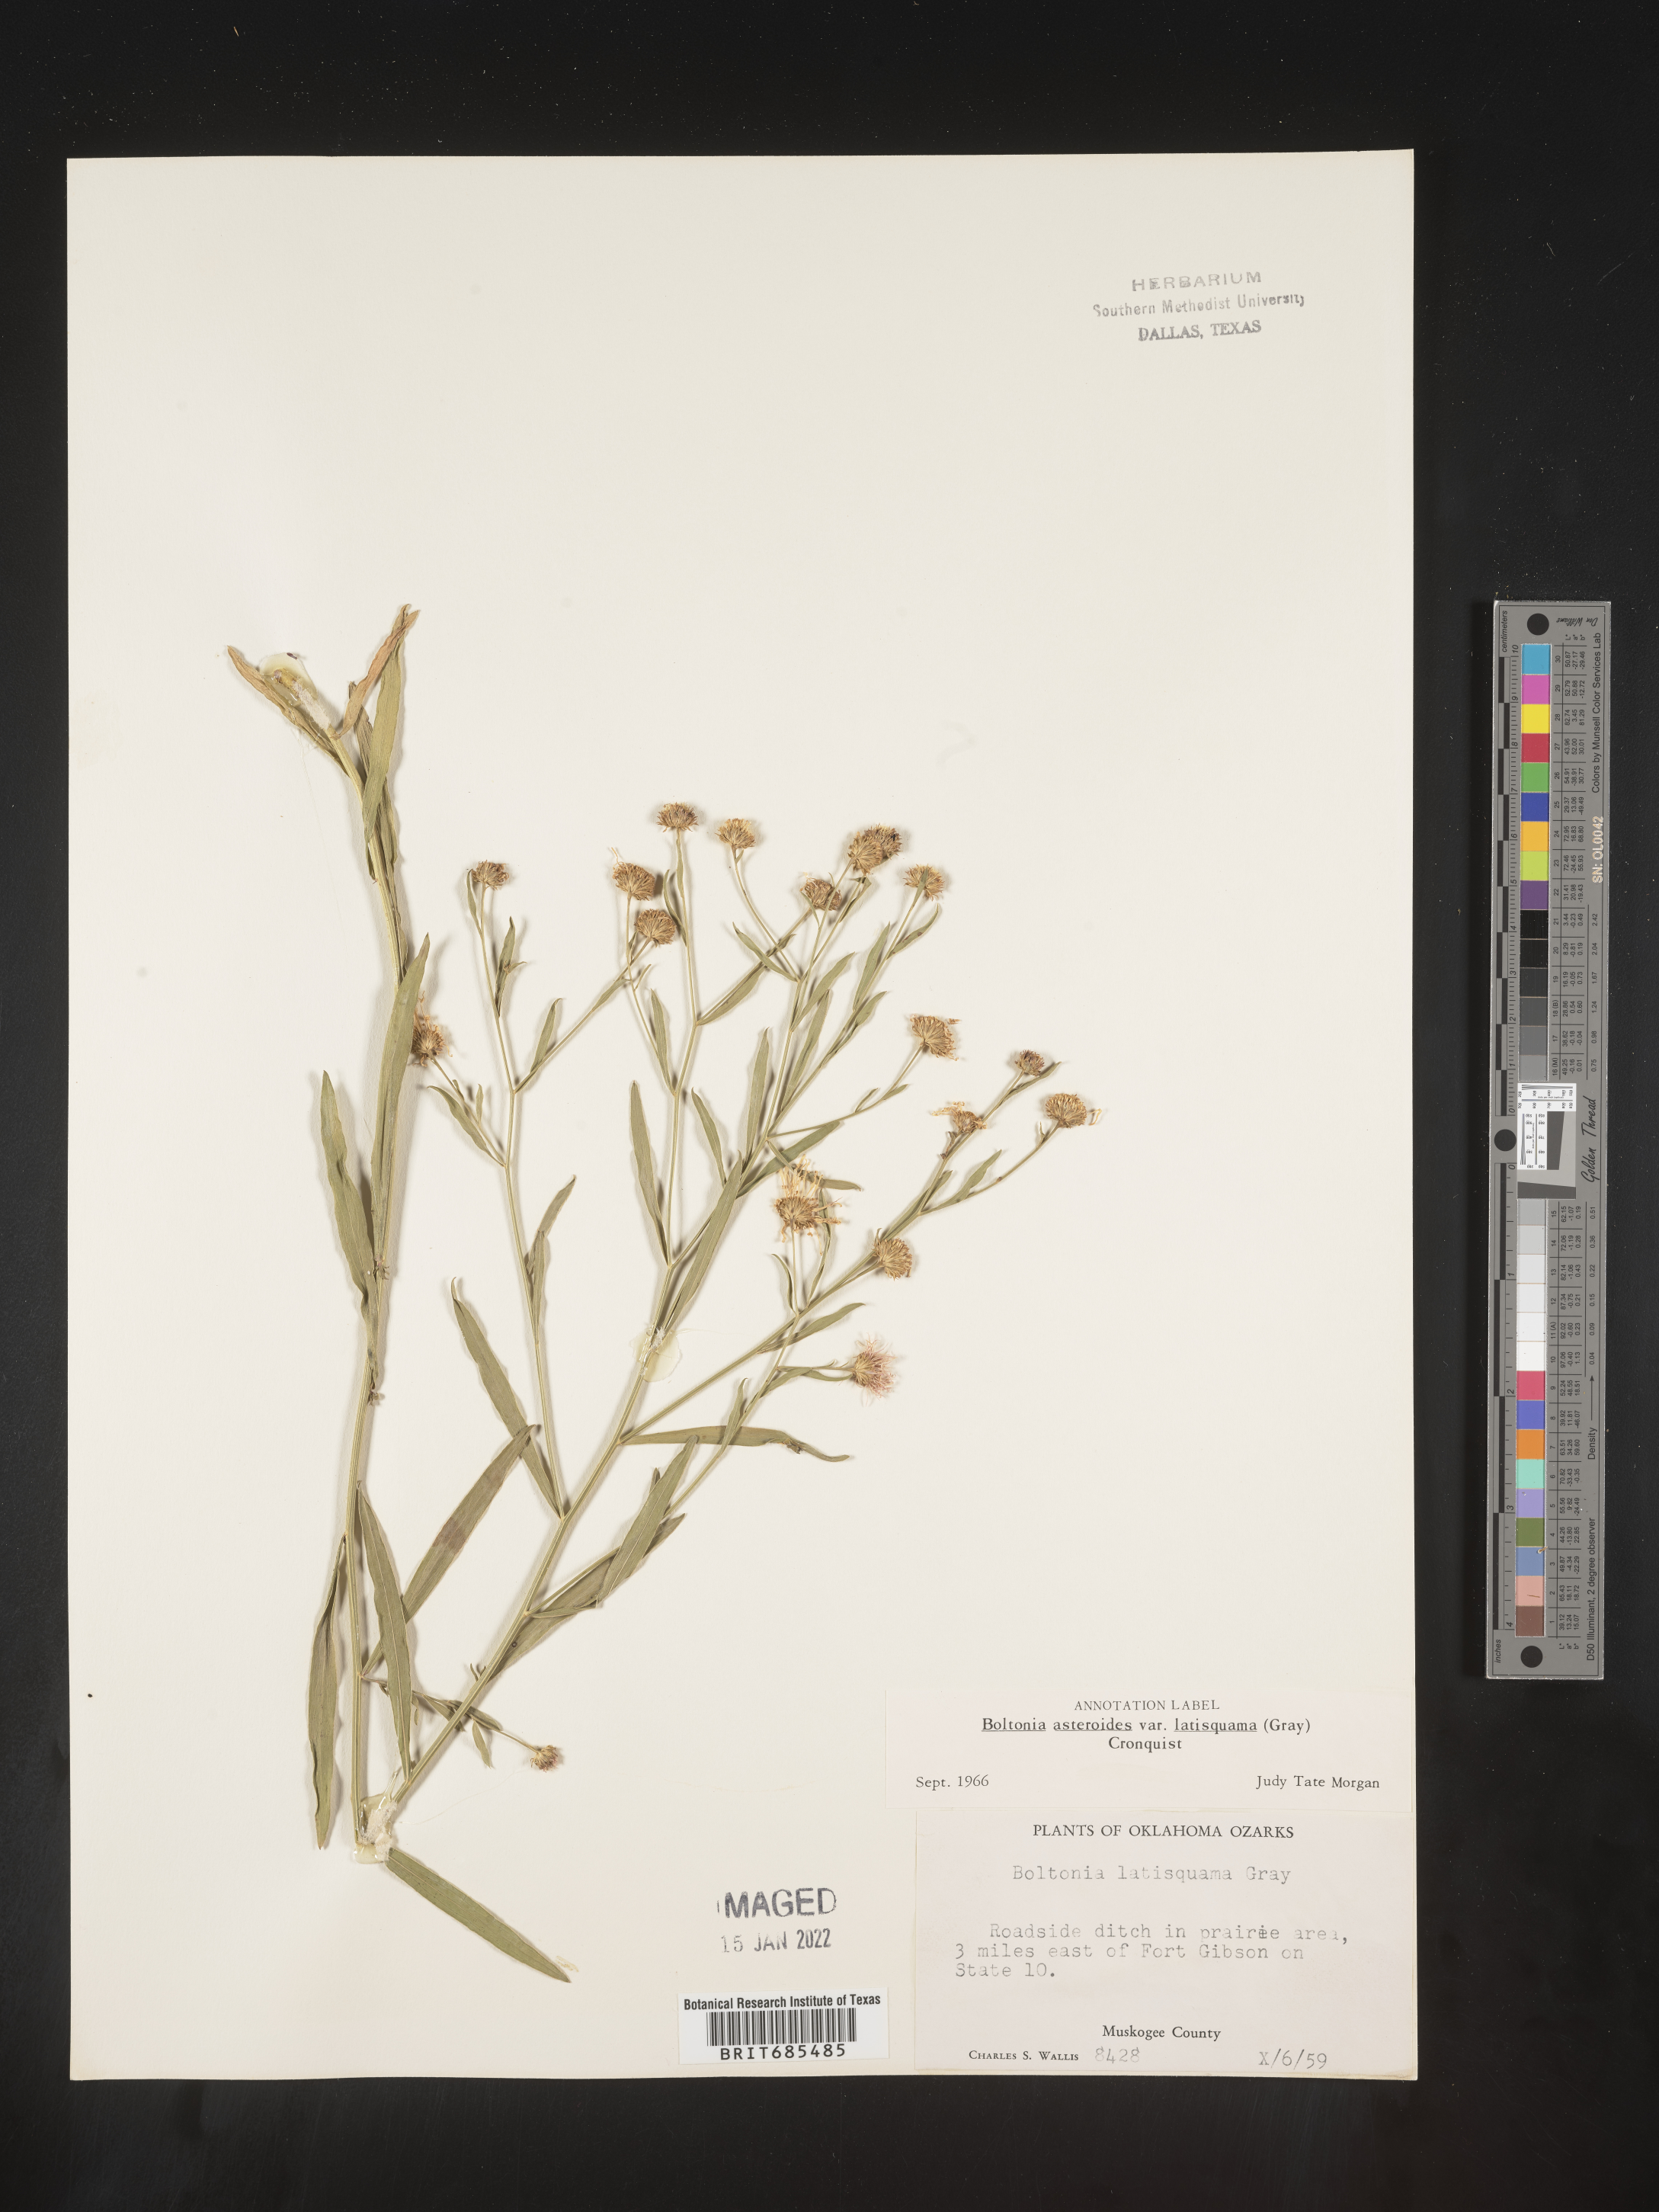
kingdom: Plantae
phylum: Tracheophyta
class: Magnoliopsida
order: Asterales
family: Asteraceae
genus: Boltonia
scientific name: Boltonia asteroides
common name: False chamomile
